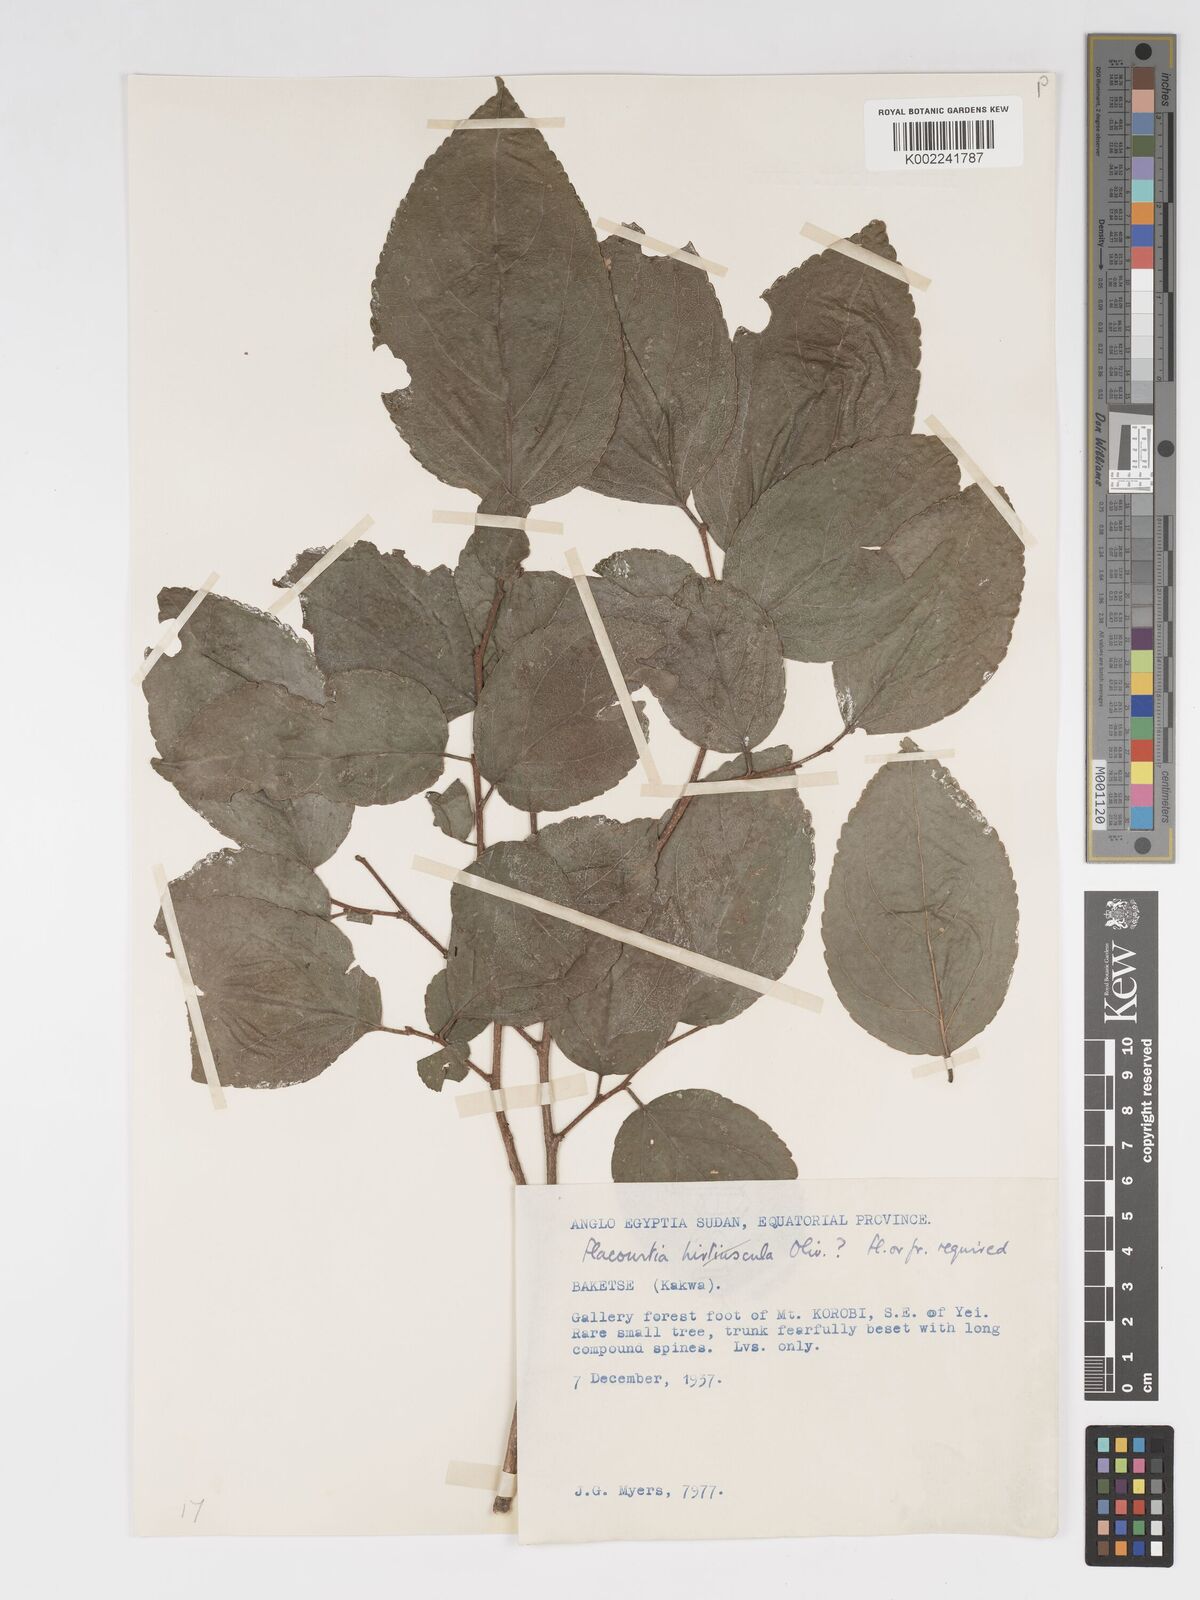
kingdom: Plantae
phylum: Tracheophyta
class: Magnoliopsida
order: Malpighiales
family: Salicaceae
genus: Flacourtia
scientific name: Flacourtia indica
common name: Governor's plum
